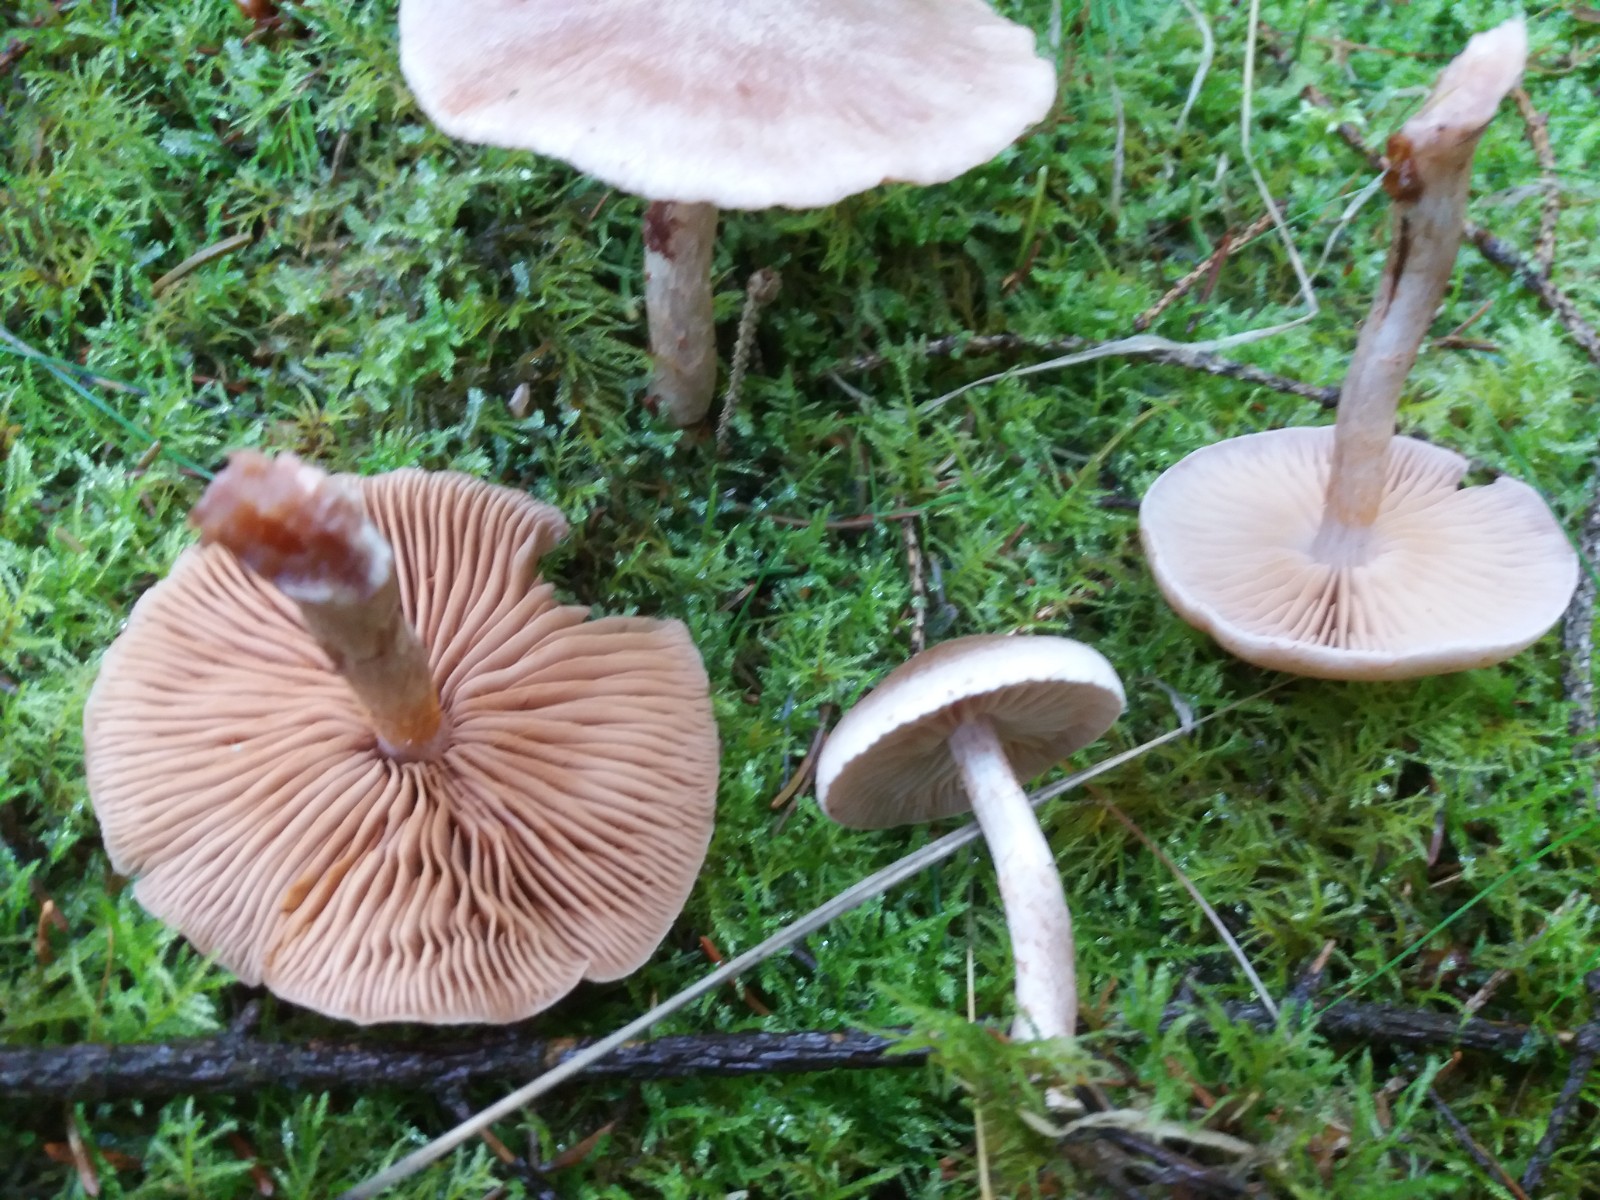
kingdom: Fungi
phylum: Basidiomycota
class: Agaricomycetes
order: Agaricales
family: Cortinariaceae
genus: Cortinarius
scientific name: Cortinarius spilomeus
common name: rødfnugget slørhat
